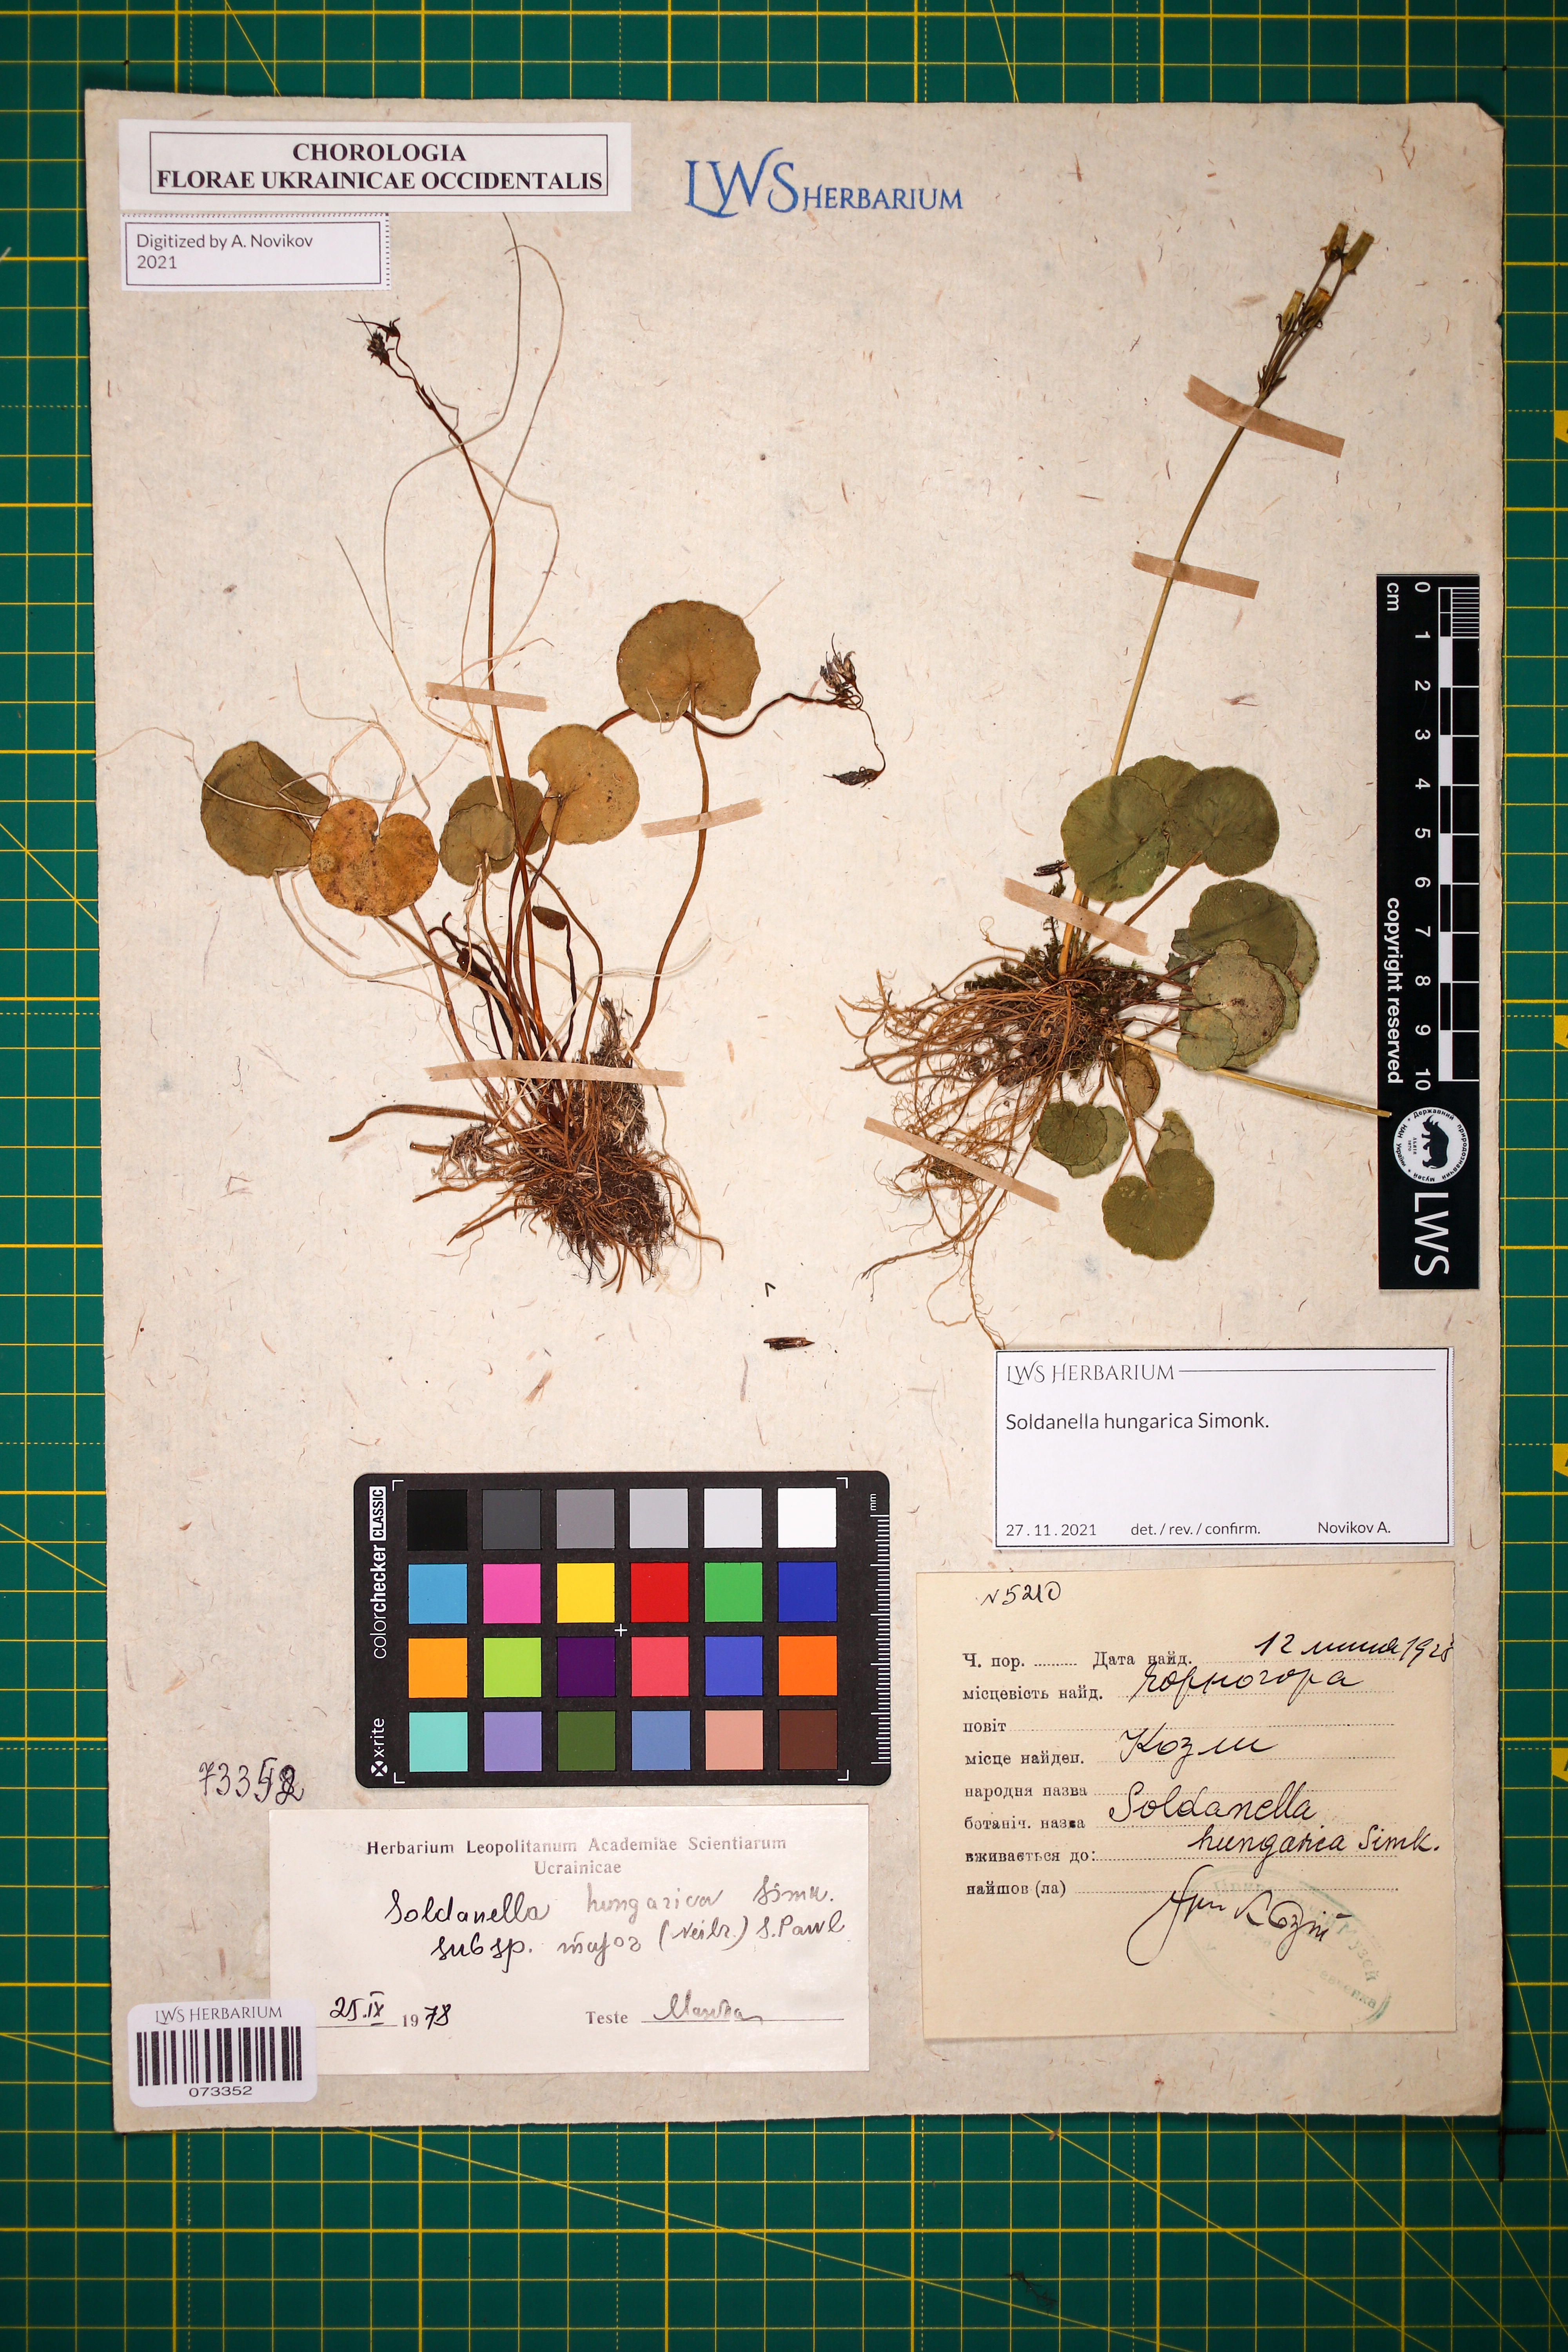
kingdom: Plantae
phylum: Tracheophyta
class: Magnoliopsida
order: Ericales
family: Primulaceae
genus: Soldanella
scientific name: Soldanella hungarica
